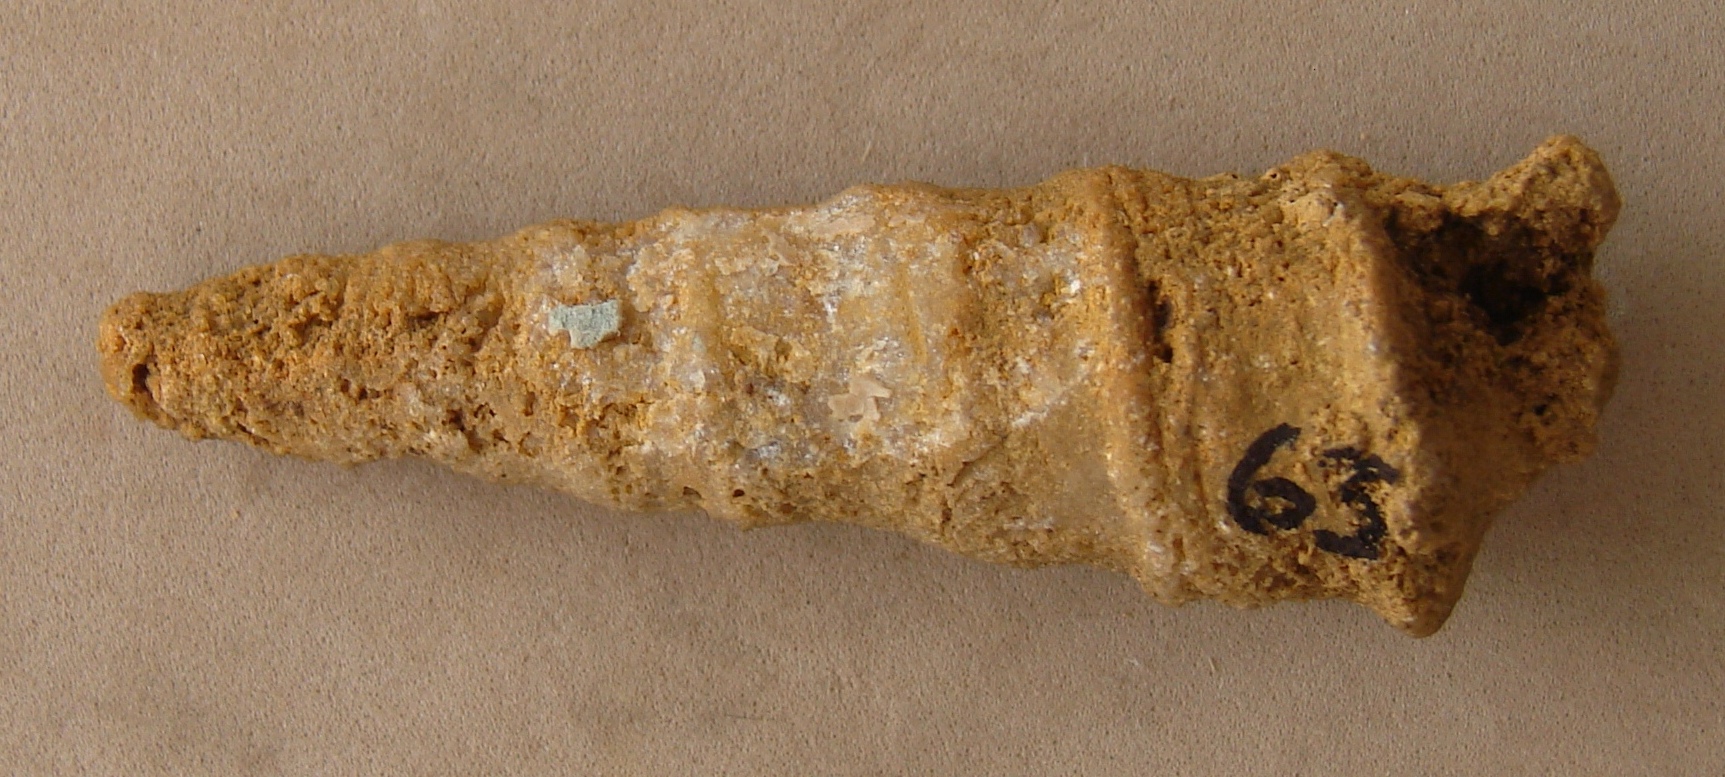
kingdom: Animalia
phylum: Mollusca
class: Gastropoda
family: Nerineidae
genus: Nerinea
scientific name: Nerinea
